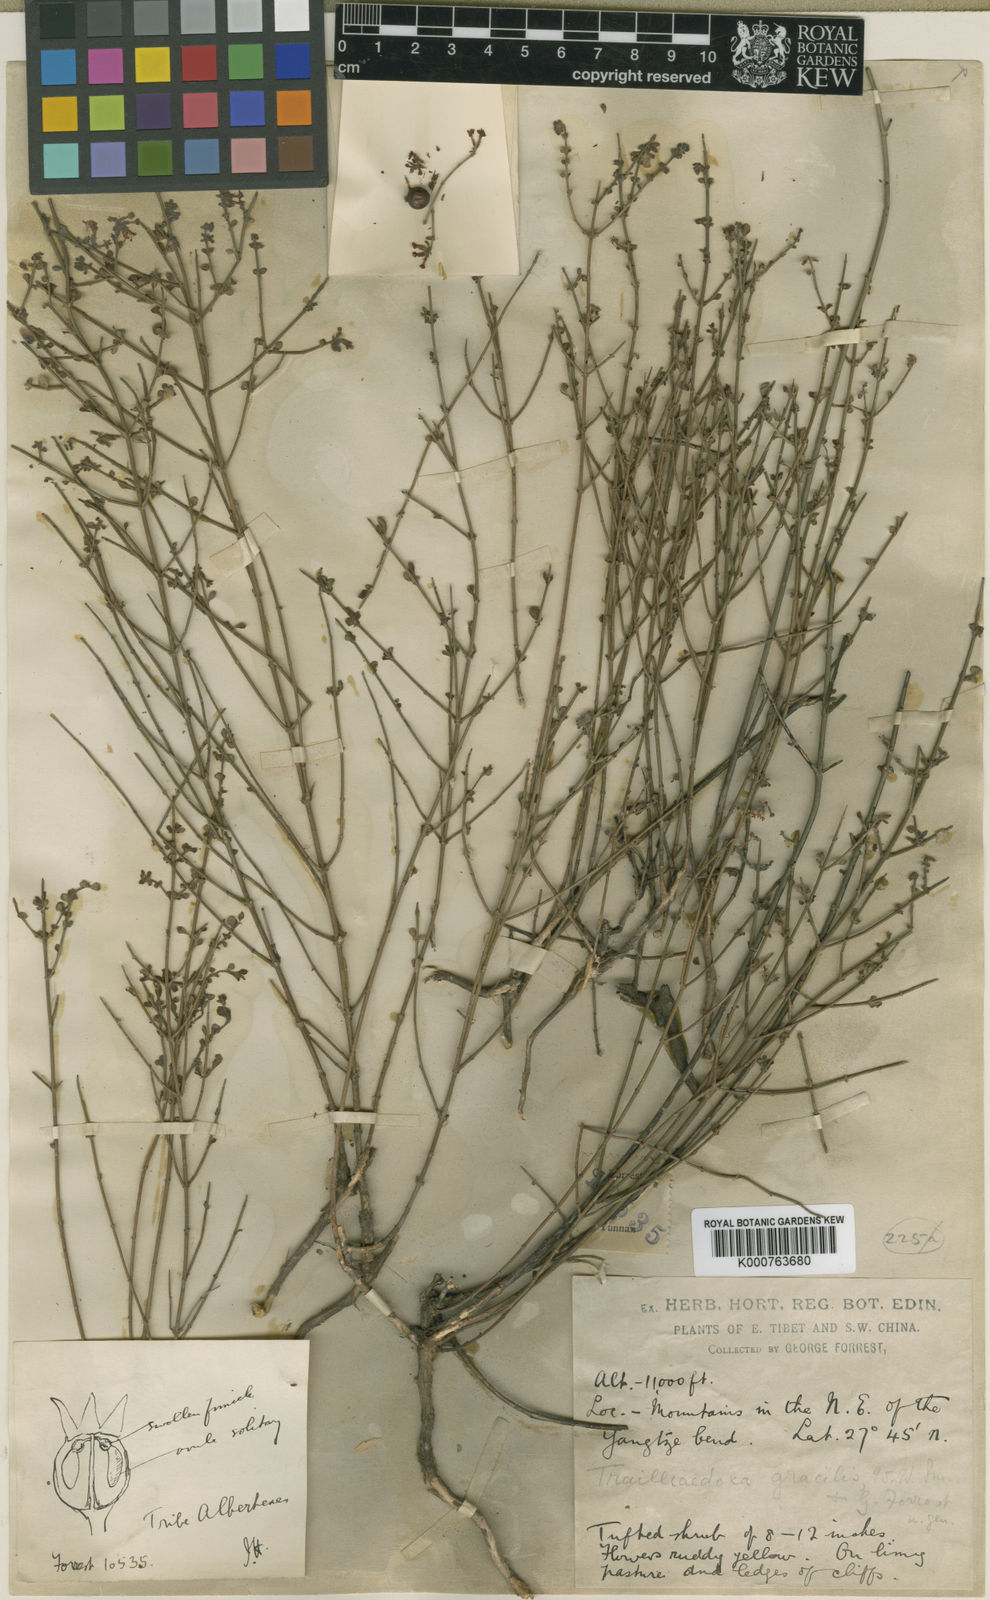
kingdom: Plantae
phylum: Tracheophyta
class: Magnoliopsida
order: Gentianales
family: Rubiaceae
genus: Trailliaedoxa
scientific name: Trailliaedoxa gracilis
